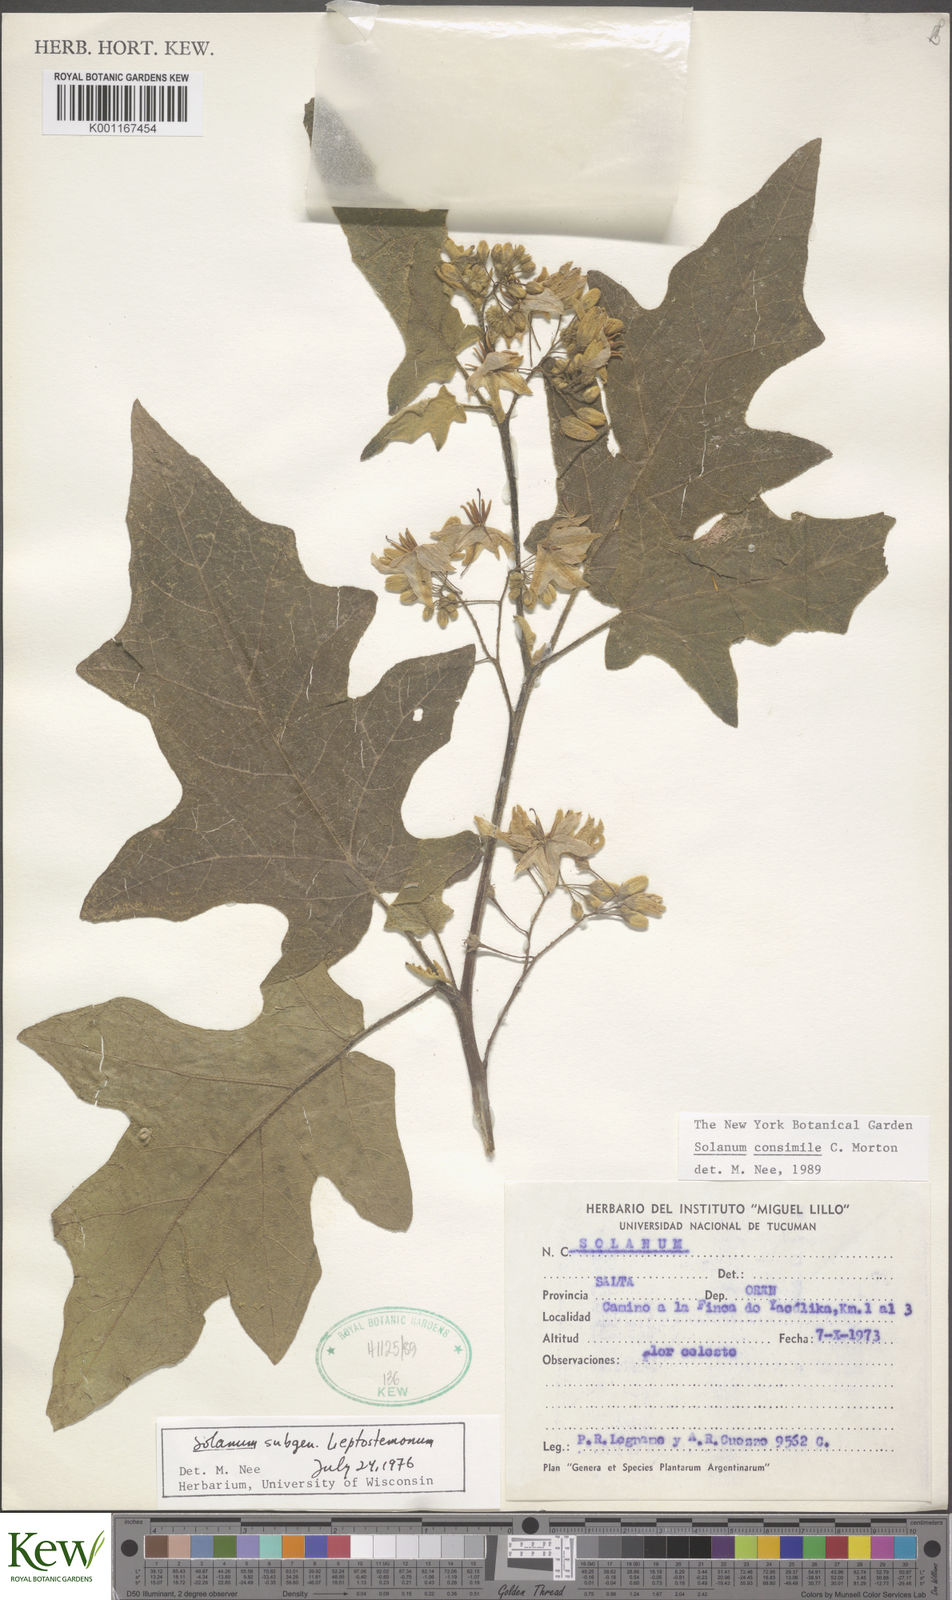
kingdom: Plantae
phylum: Tracheophyta
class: Magnoliopsida
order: Solanales
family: Solanaceae
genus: Solanum
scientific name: Solanum consimile
